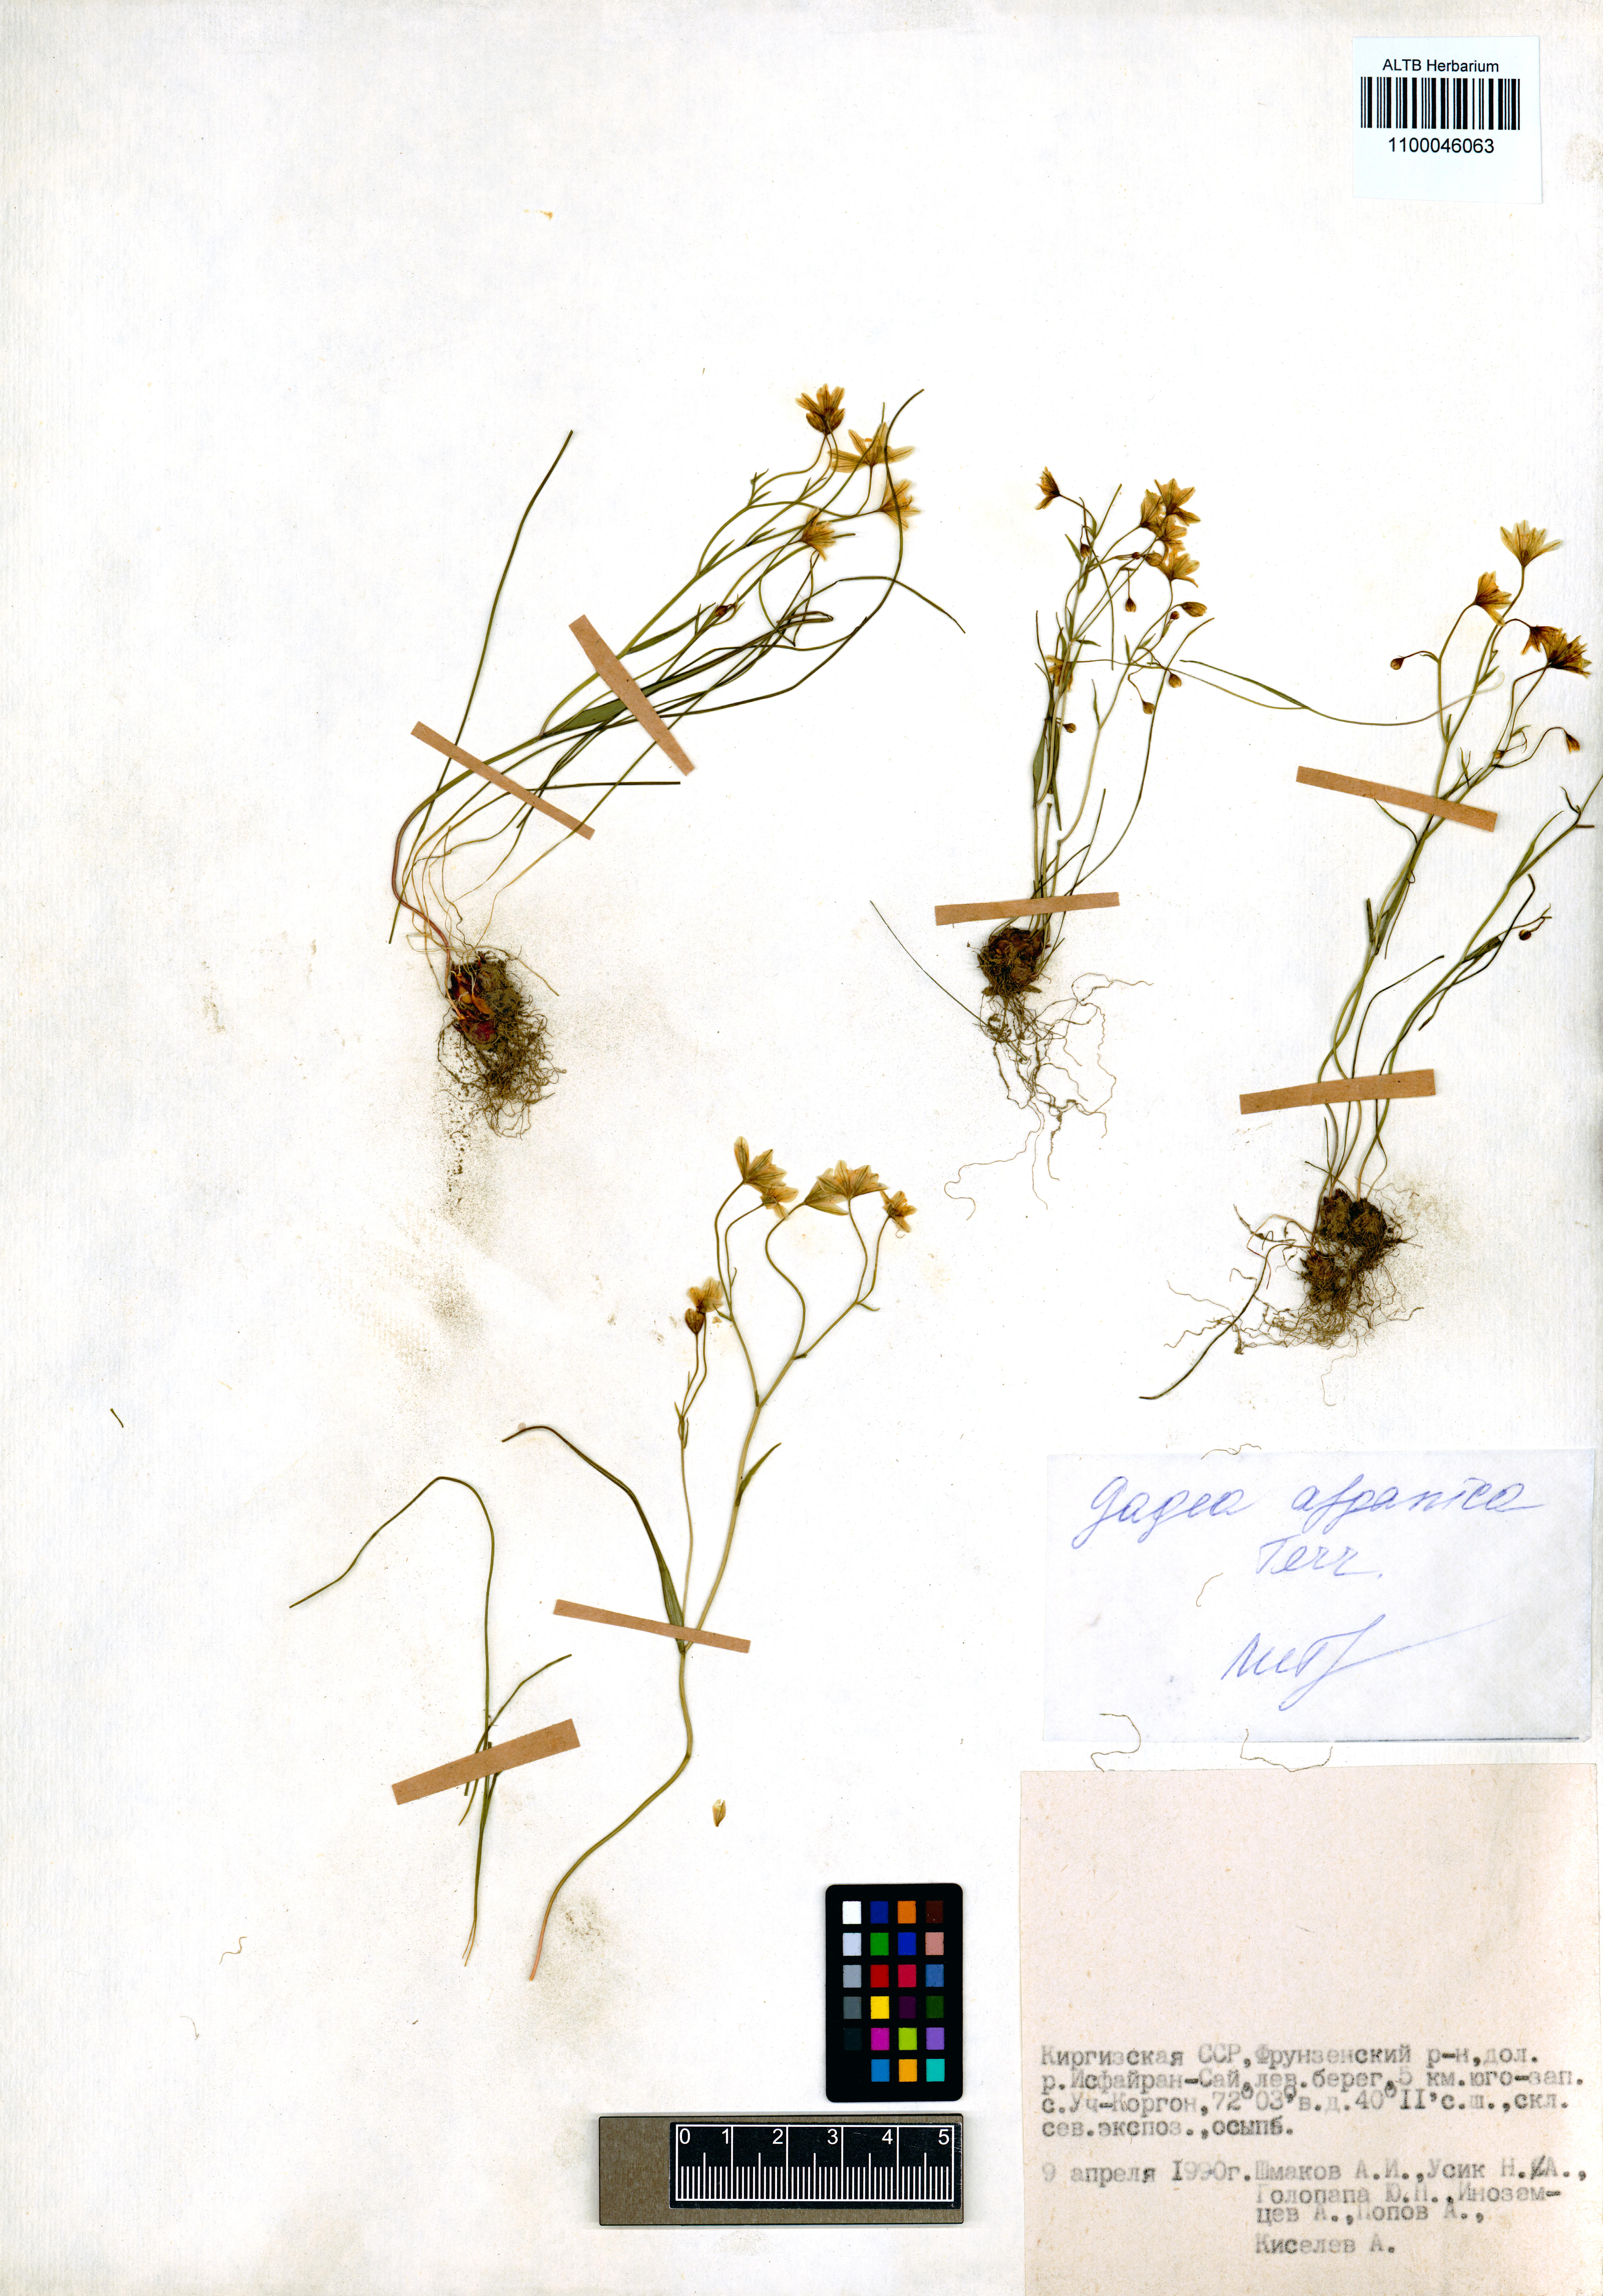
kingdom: Plantae
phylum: Tracheophyta
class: Liliopsida
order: Liliales
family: Liliaceae
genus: Gagea
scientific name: Gagea afghanica
